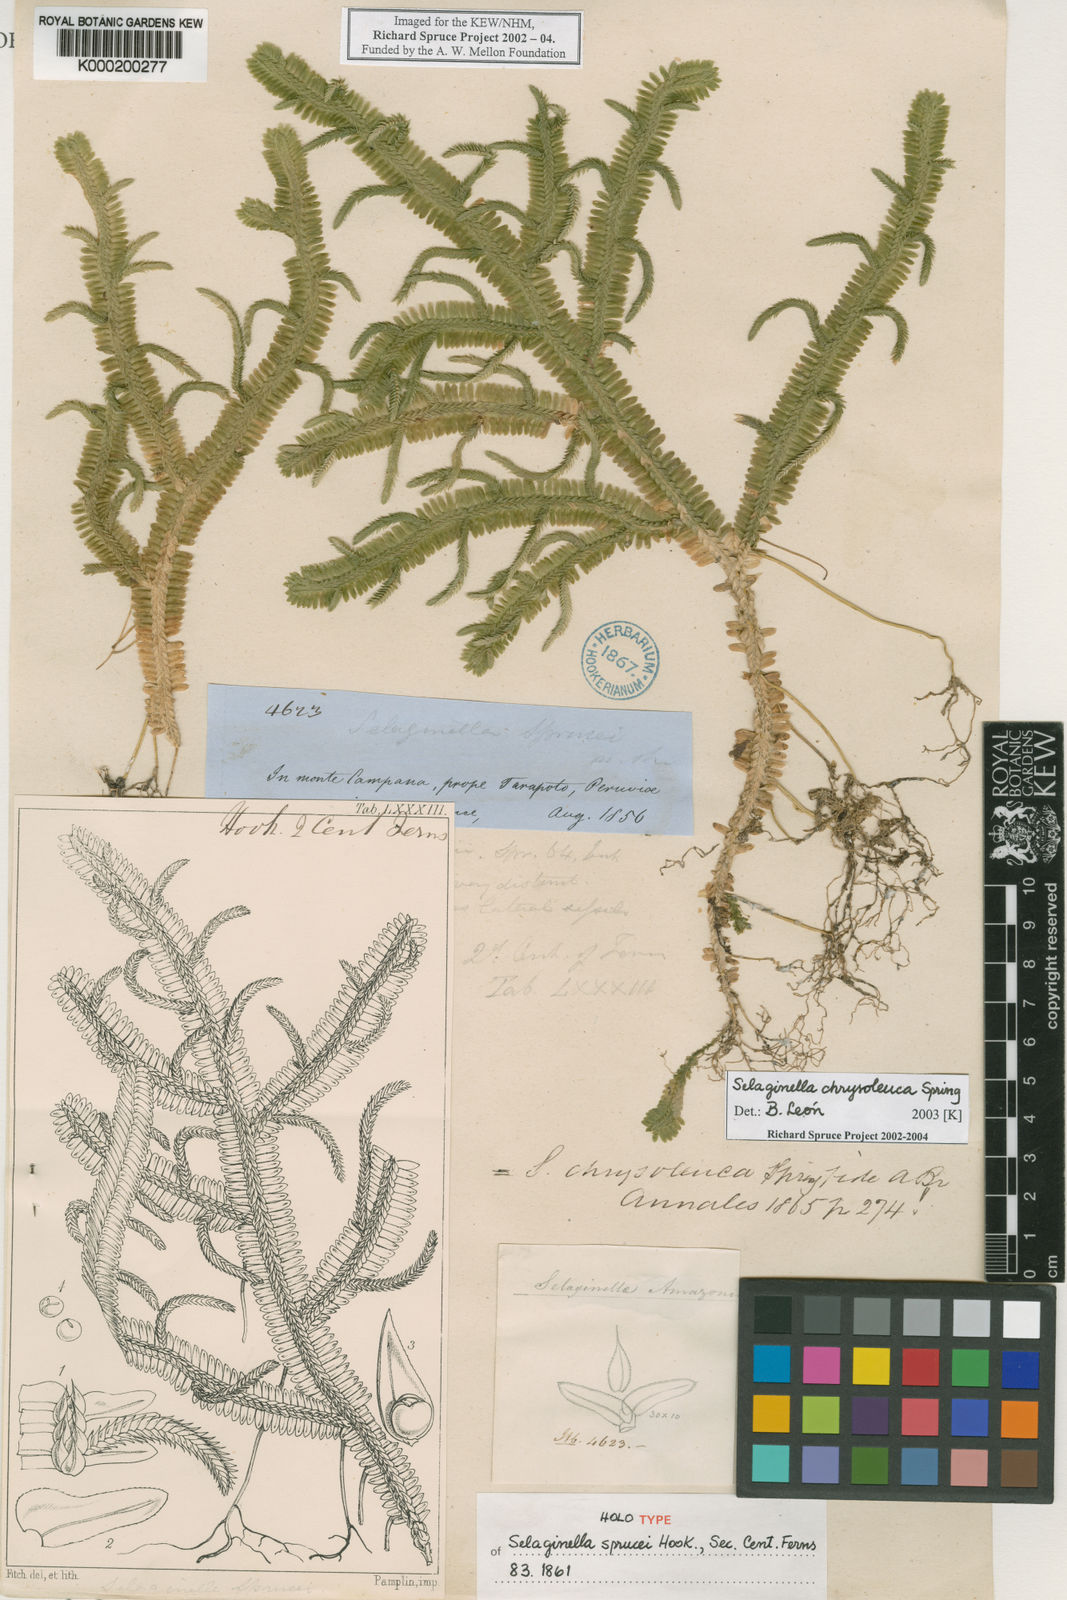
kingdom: Plantae
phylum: Tracheophyta
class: Lycopodiopsida
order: Selaginellales
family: Selaginellaceae
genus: Selaginella
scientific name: Selaginella chrysoleuca
